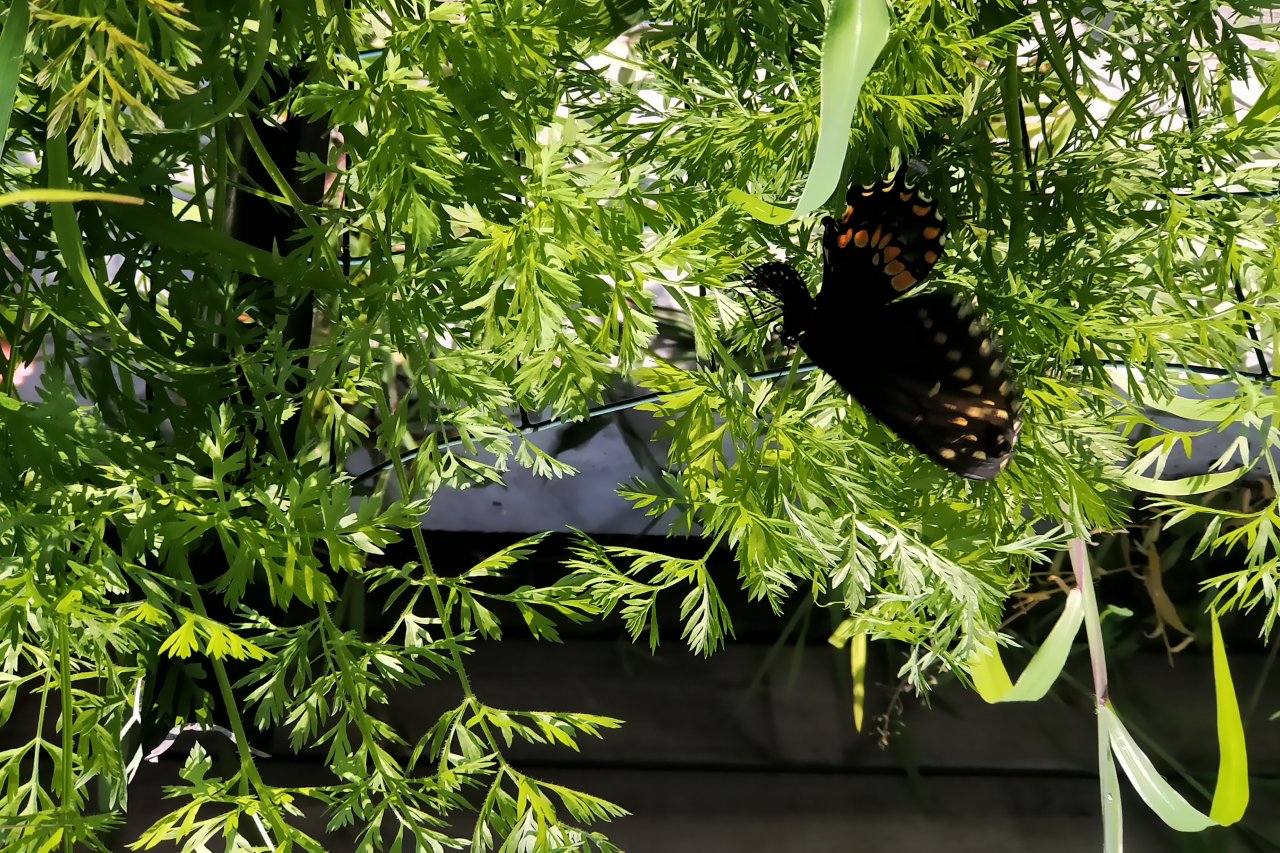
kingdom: Animalia
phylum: Arthropoda
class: Insecta
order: Lepidoptera
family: Papilionidae
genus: Papilio
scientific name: Papilio polyxenes
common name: Black Swallowtail
